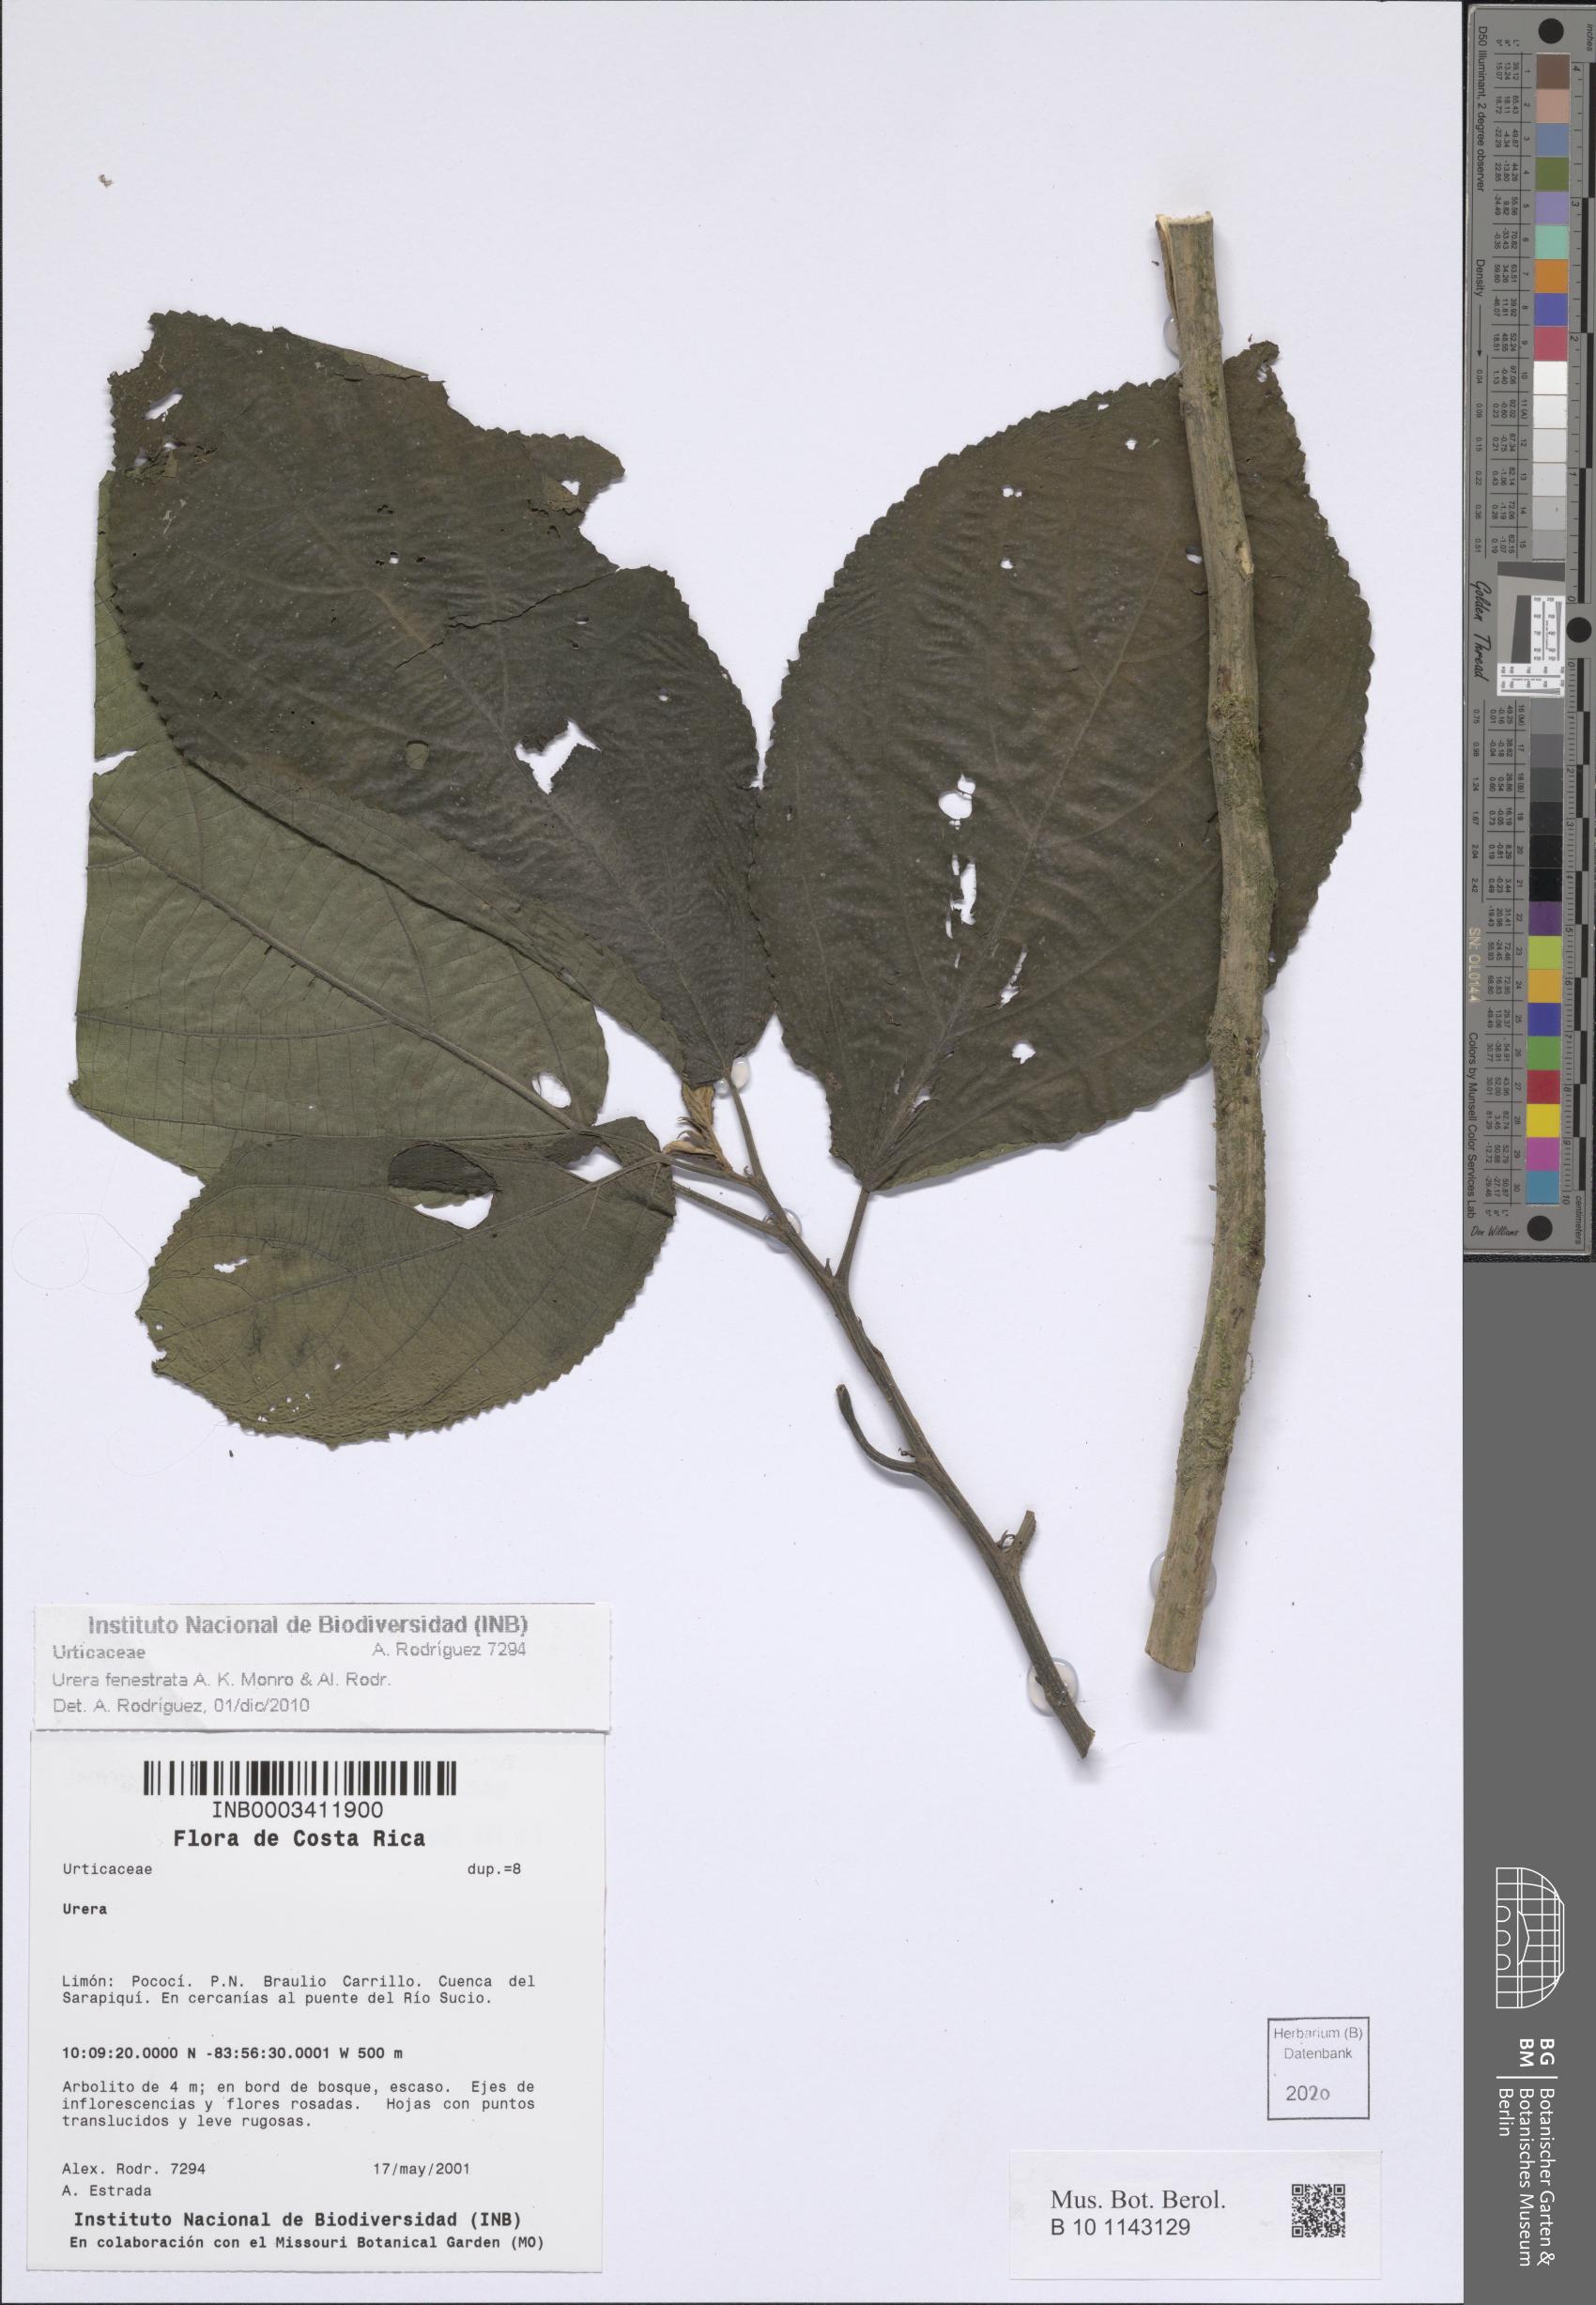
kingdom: Plantae
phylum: Tracheophyta
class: Magnoliopsida
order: Rosales
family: Urticaceae
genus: Urera
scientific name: Urera fenestrata
